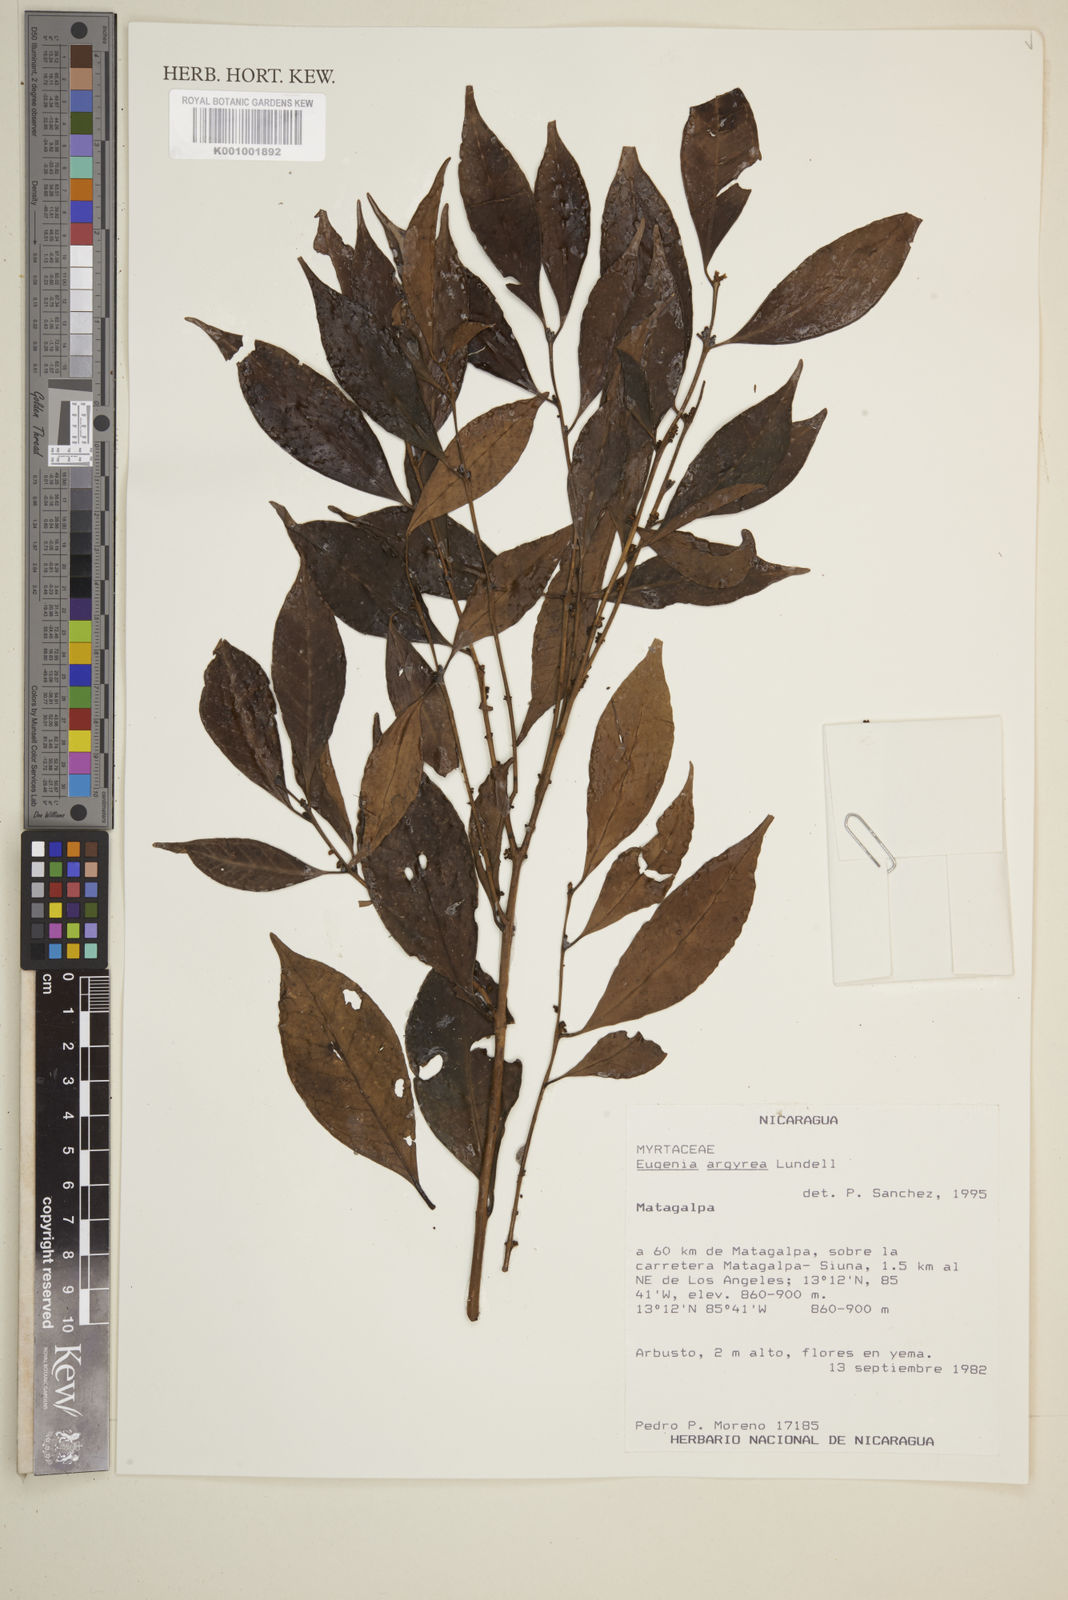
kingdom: Plantae
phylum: Tracheophyta
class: Magnoliopsida
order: Myrtales
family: Myrtaceae
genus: Eugenia
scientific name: Eugenia galalonensis
